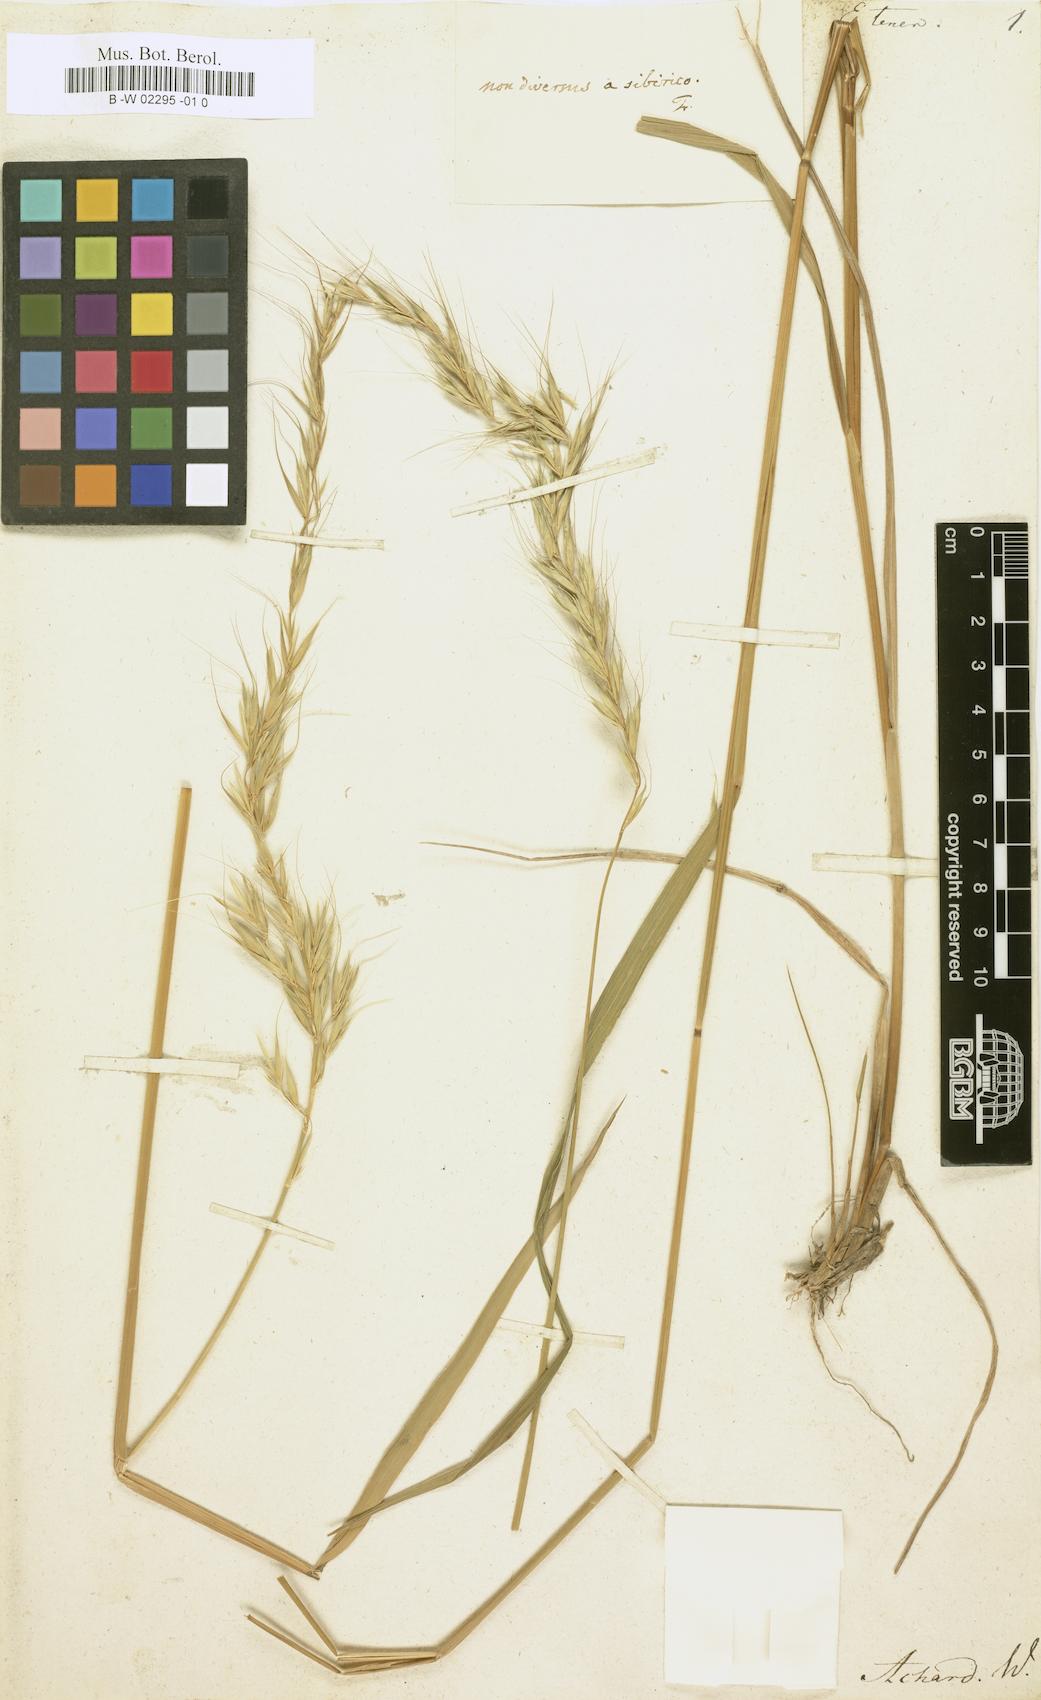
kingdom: Plantae
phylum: Tracheophyta
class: Liliopsida
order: Poales
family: Poaceae
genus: Elymus
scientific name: Elymus sibiricus
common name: Siberian wildrye
